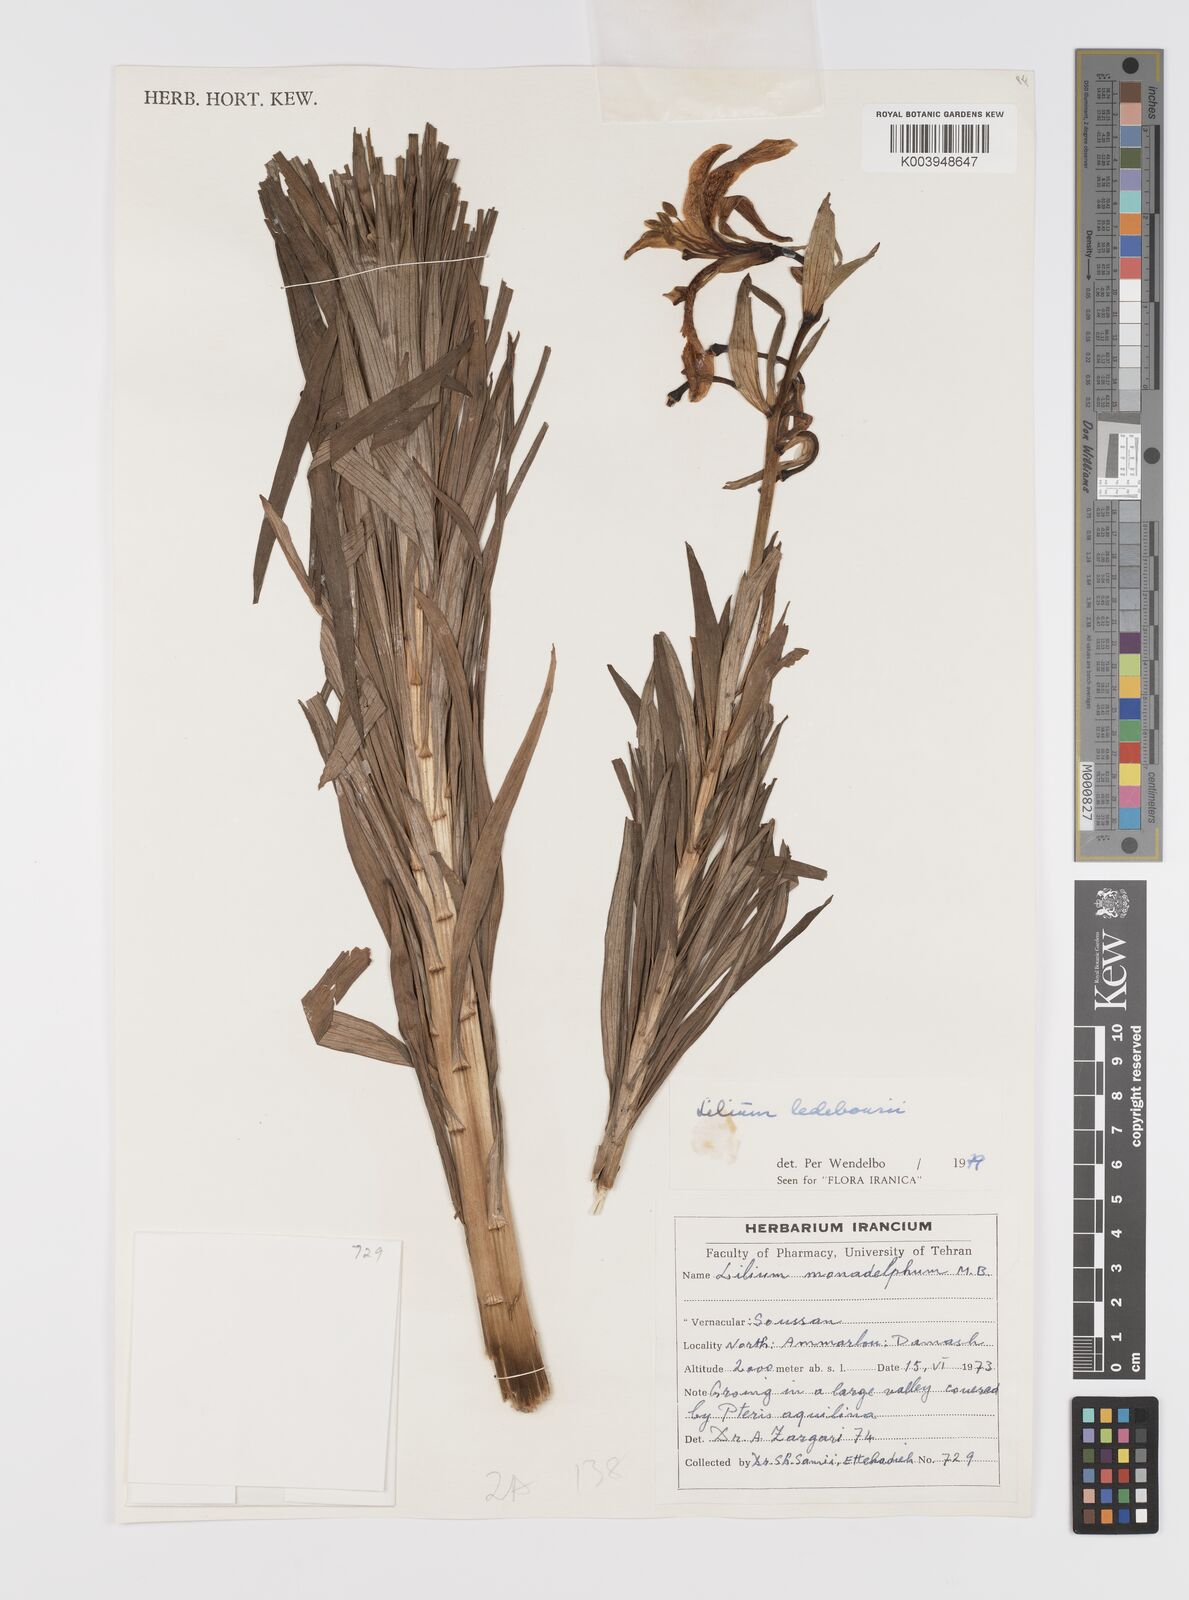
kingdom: Plantae
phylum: Tracheophyta
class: Liliopsida
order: Liliales
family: Liliaceae
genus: Lilium
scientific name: Lilium ledebourii
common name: Ledebour's lily
